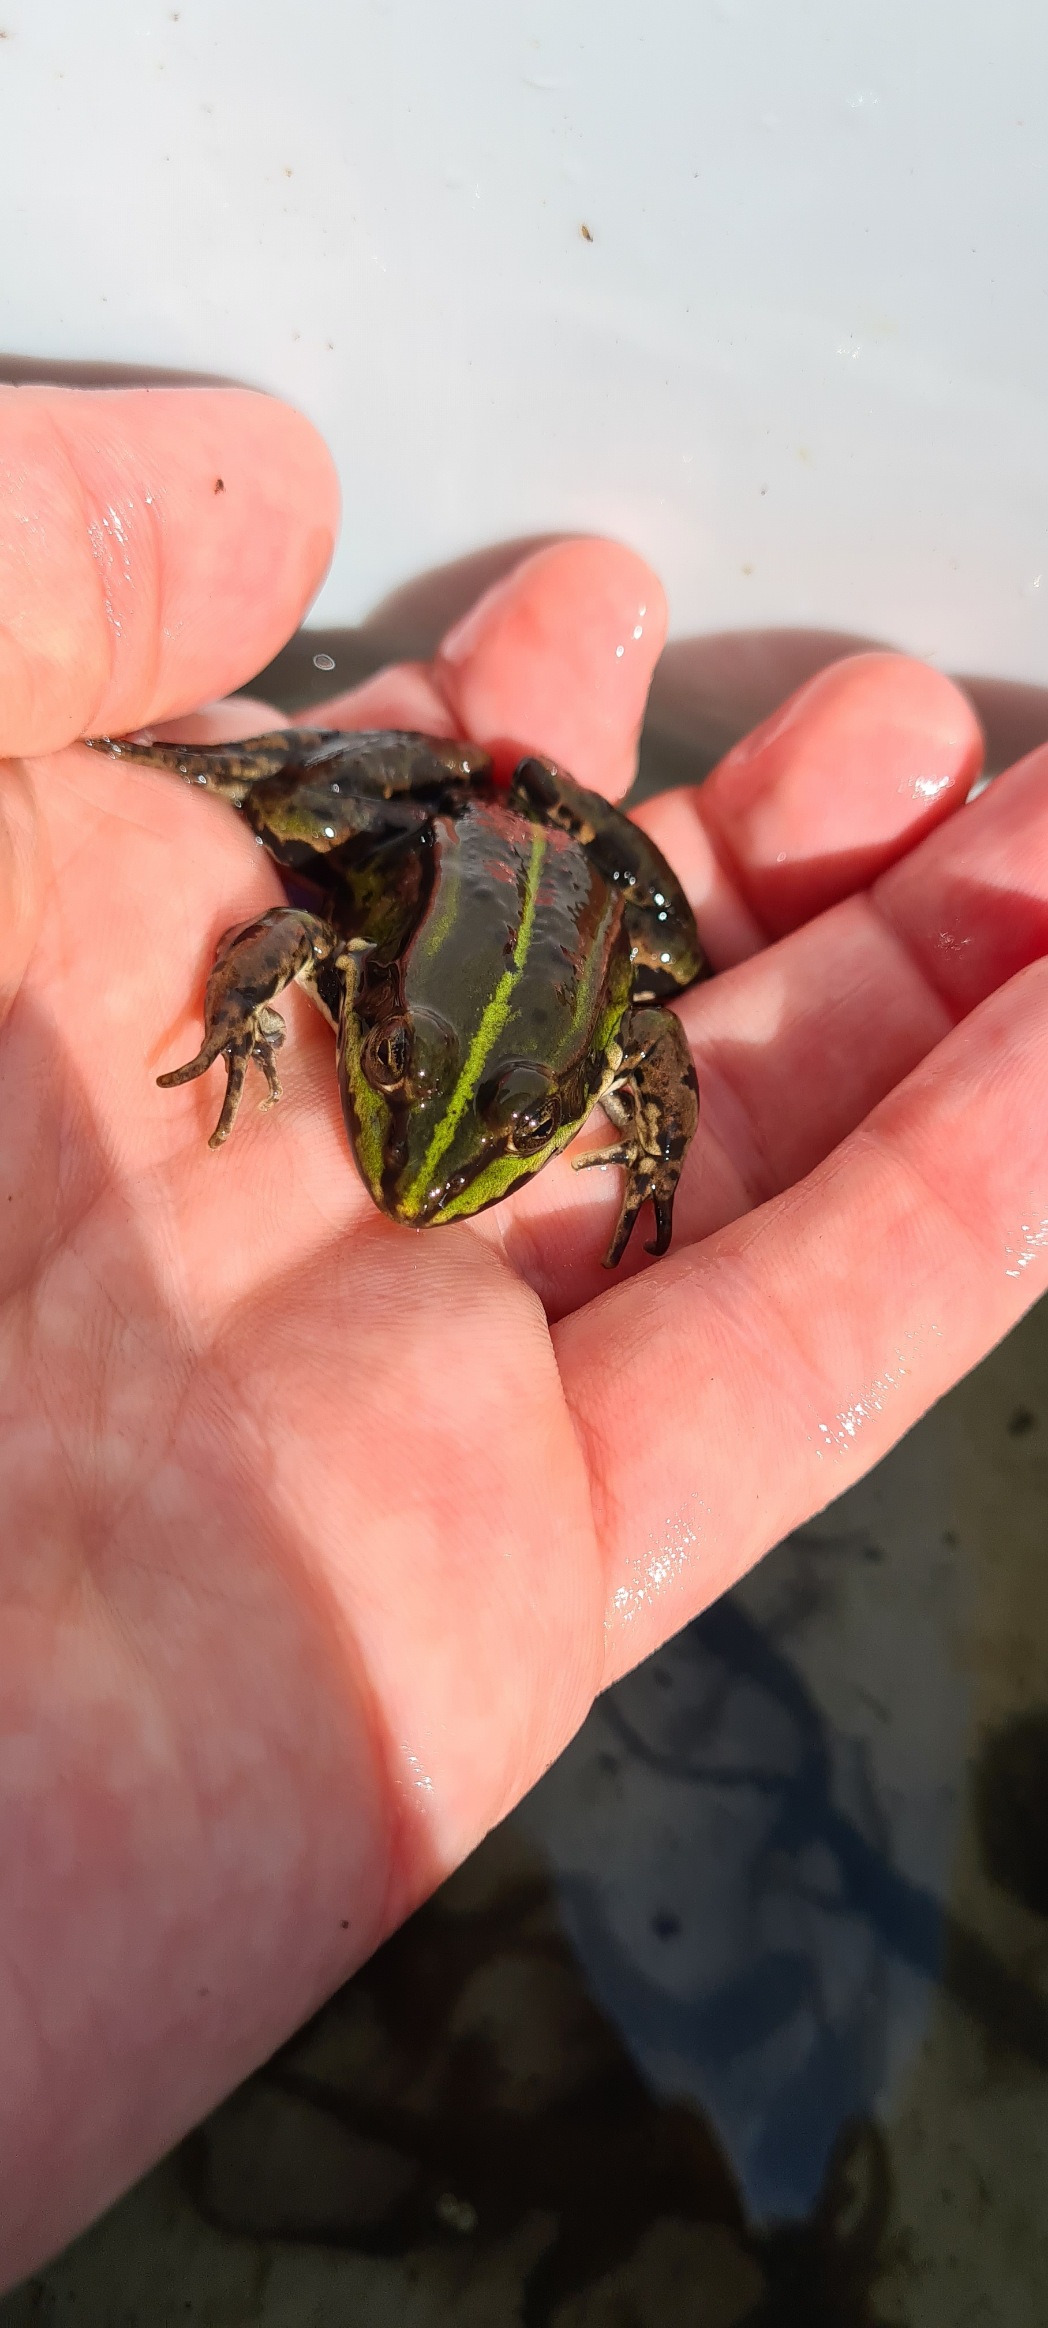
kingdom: Animalia
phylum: Chordata
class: Amphibia
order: Anura
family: Ranidae
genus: Pelophylax
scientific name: Pelophylax lessonae
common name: Grøn frø
